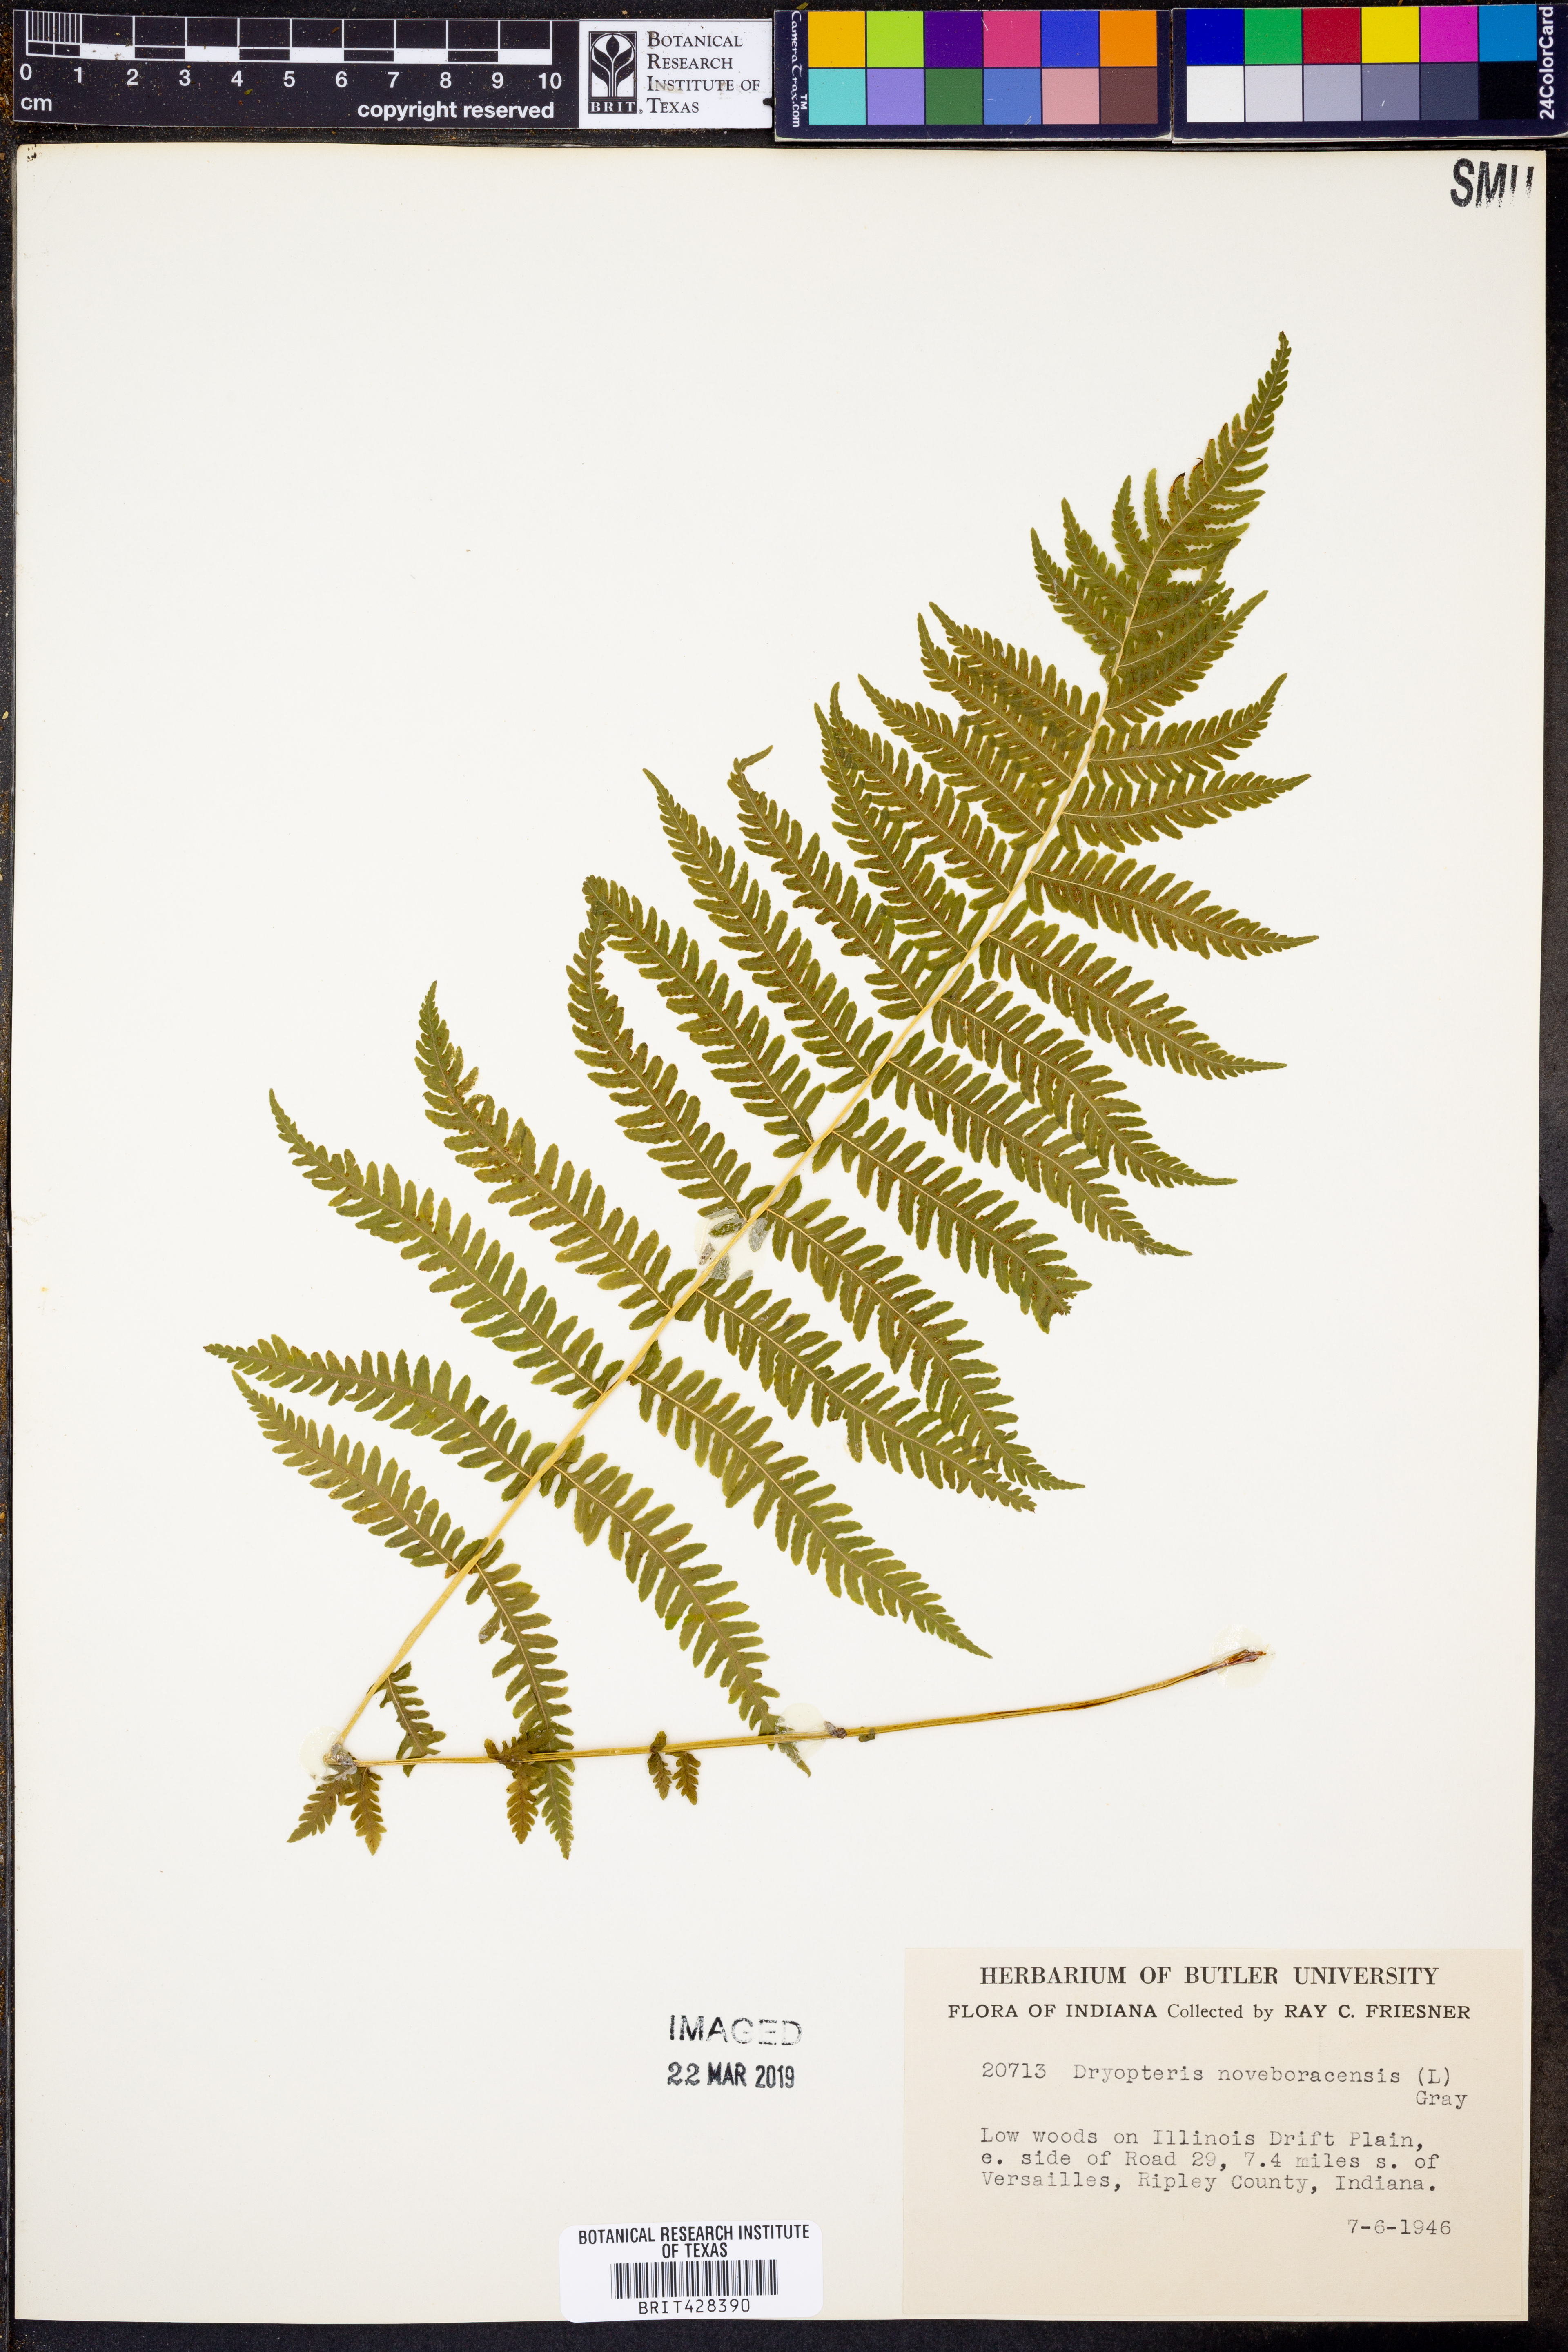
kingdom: Plantae
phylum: Tracheophyta
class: Polypodiopsida
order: Polypodiales
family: Thelypteridaceae
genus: Amauropelta
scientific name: Amauropelta noveboracensis
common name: New york fern
